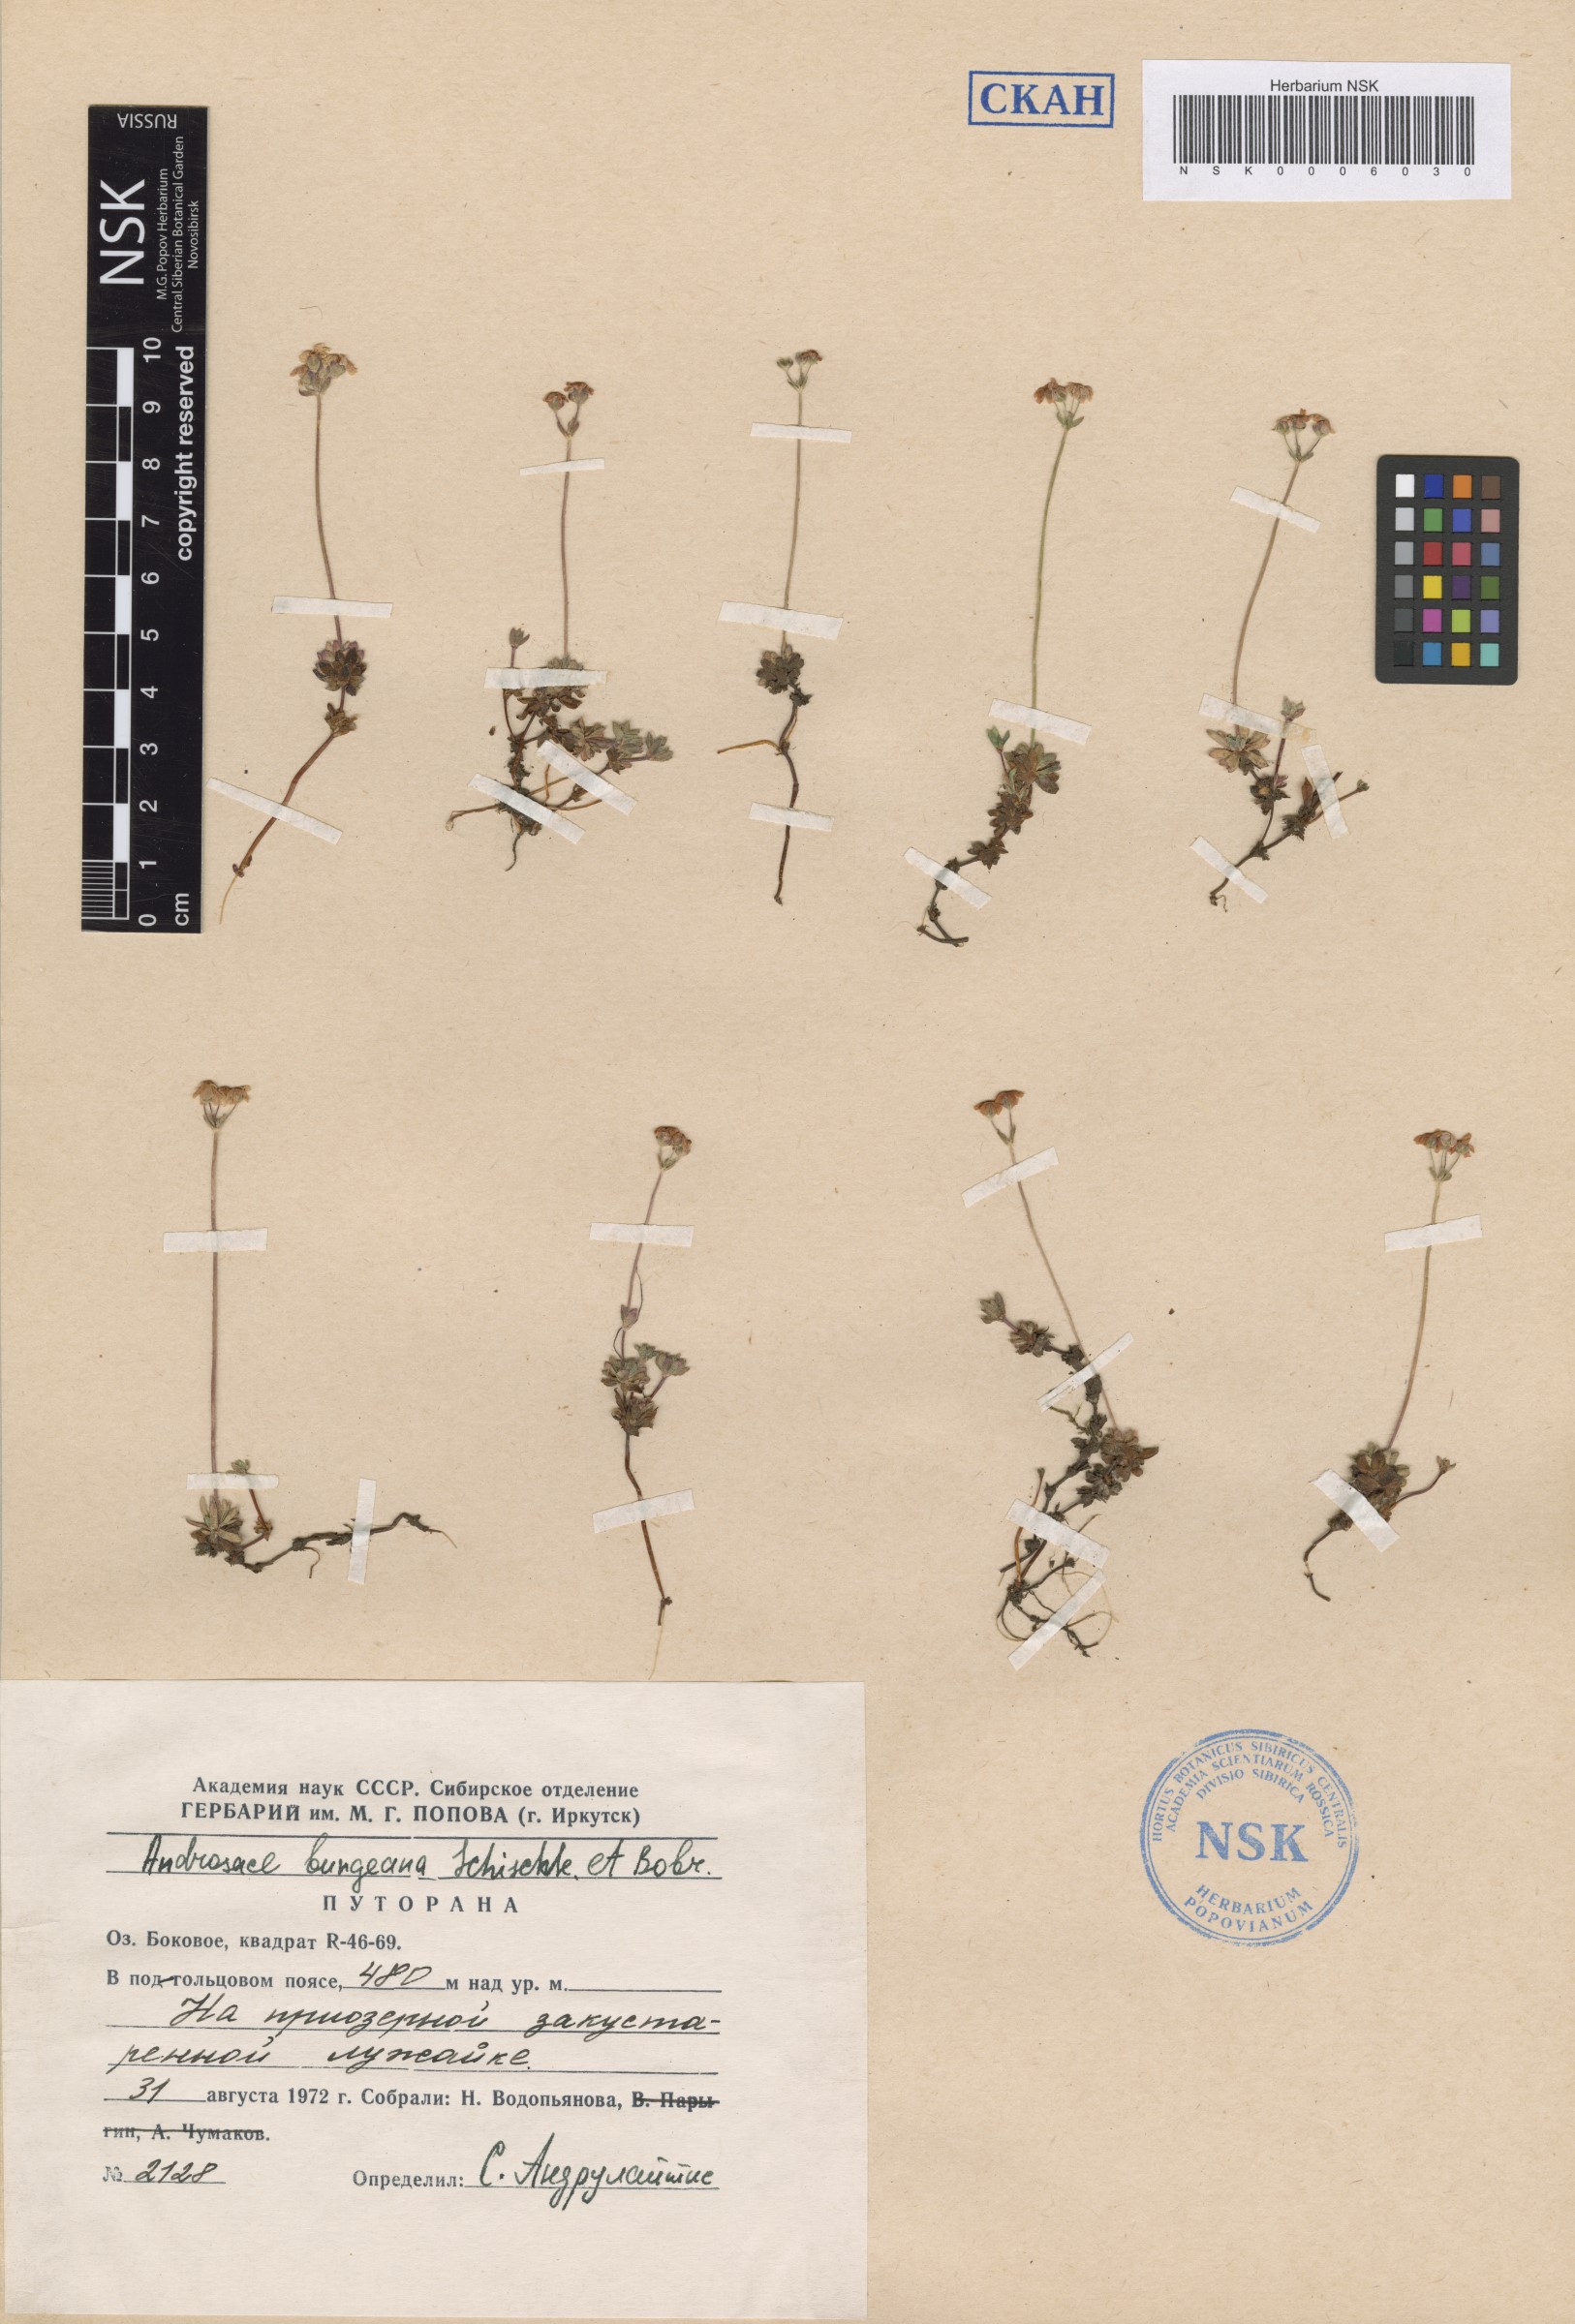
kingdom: Plantae
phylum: Tracheophyta
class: Magnoliopsida
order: Ericales
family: Primulaceae
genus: Androsace
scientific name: Androsace bungeana
